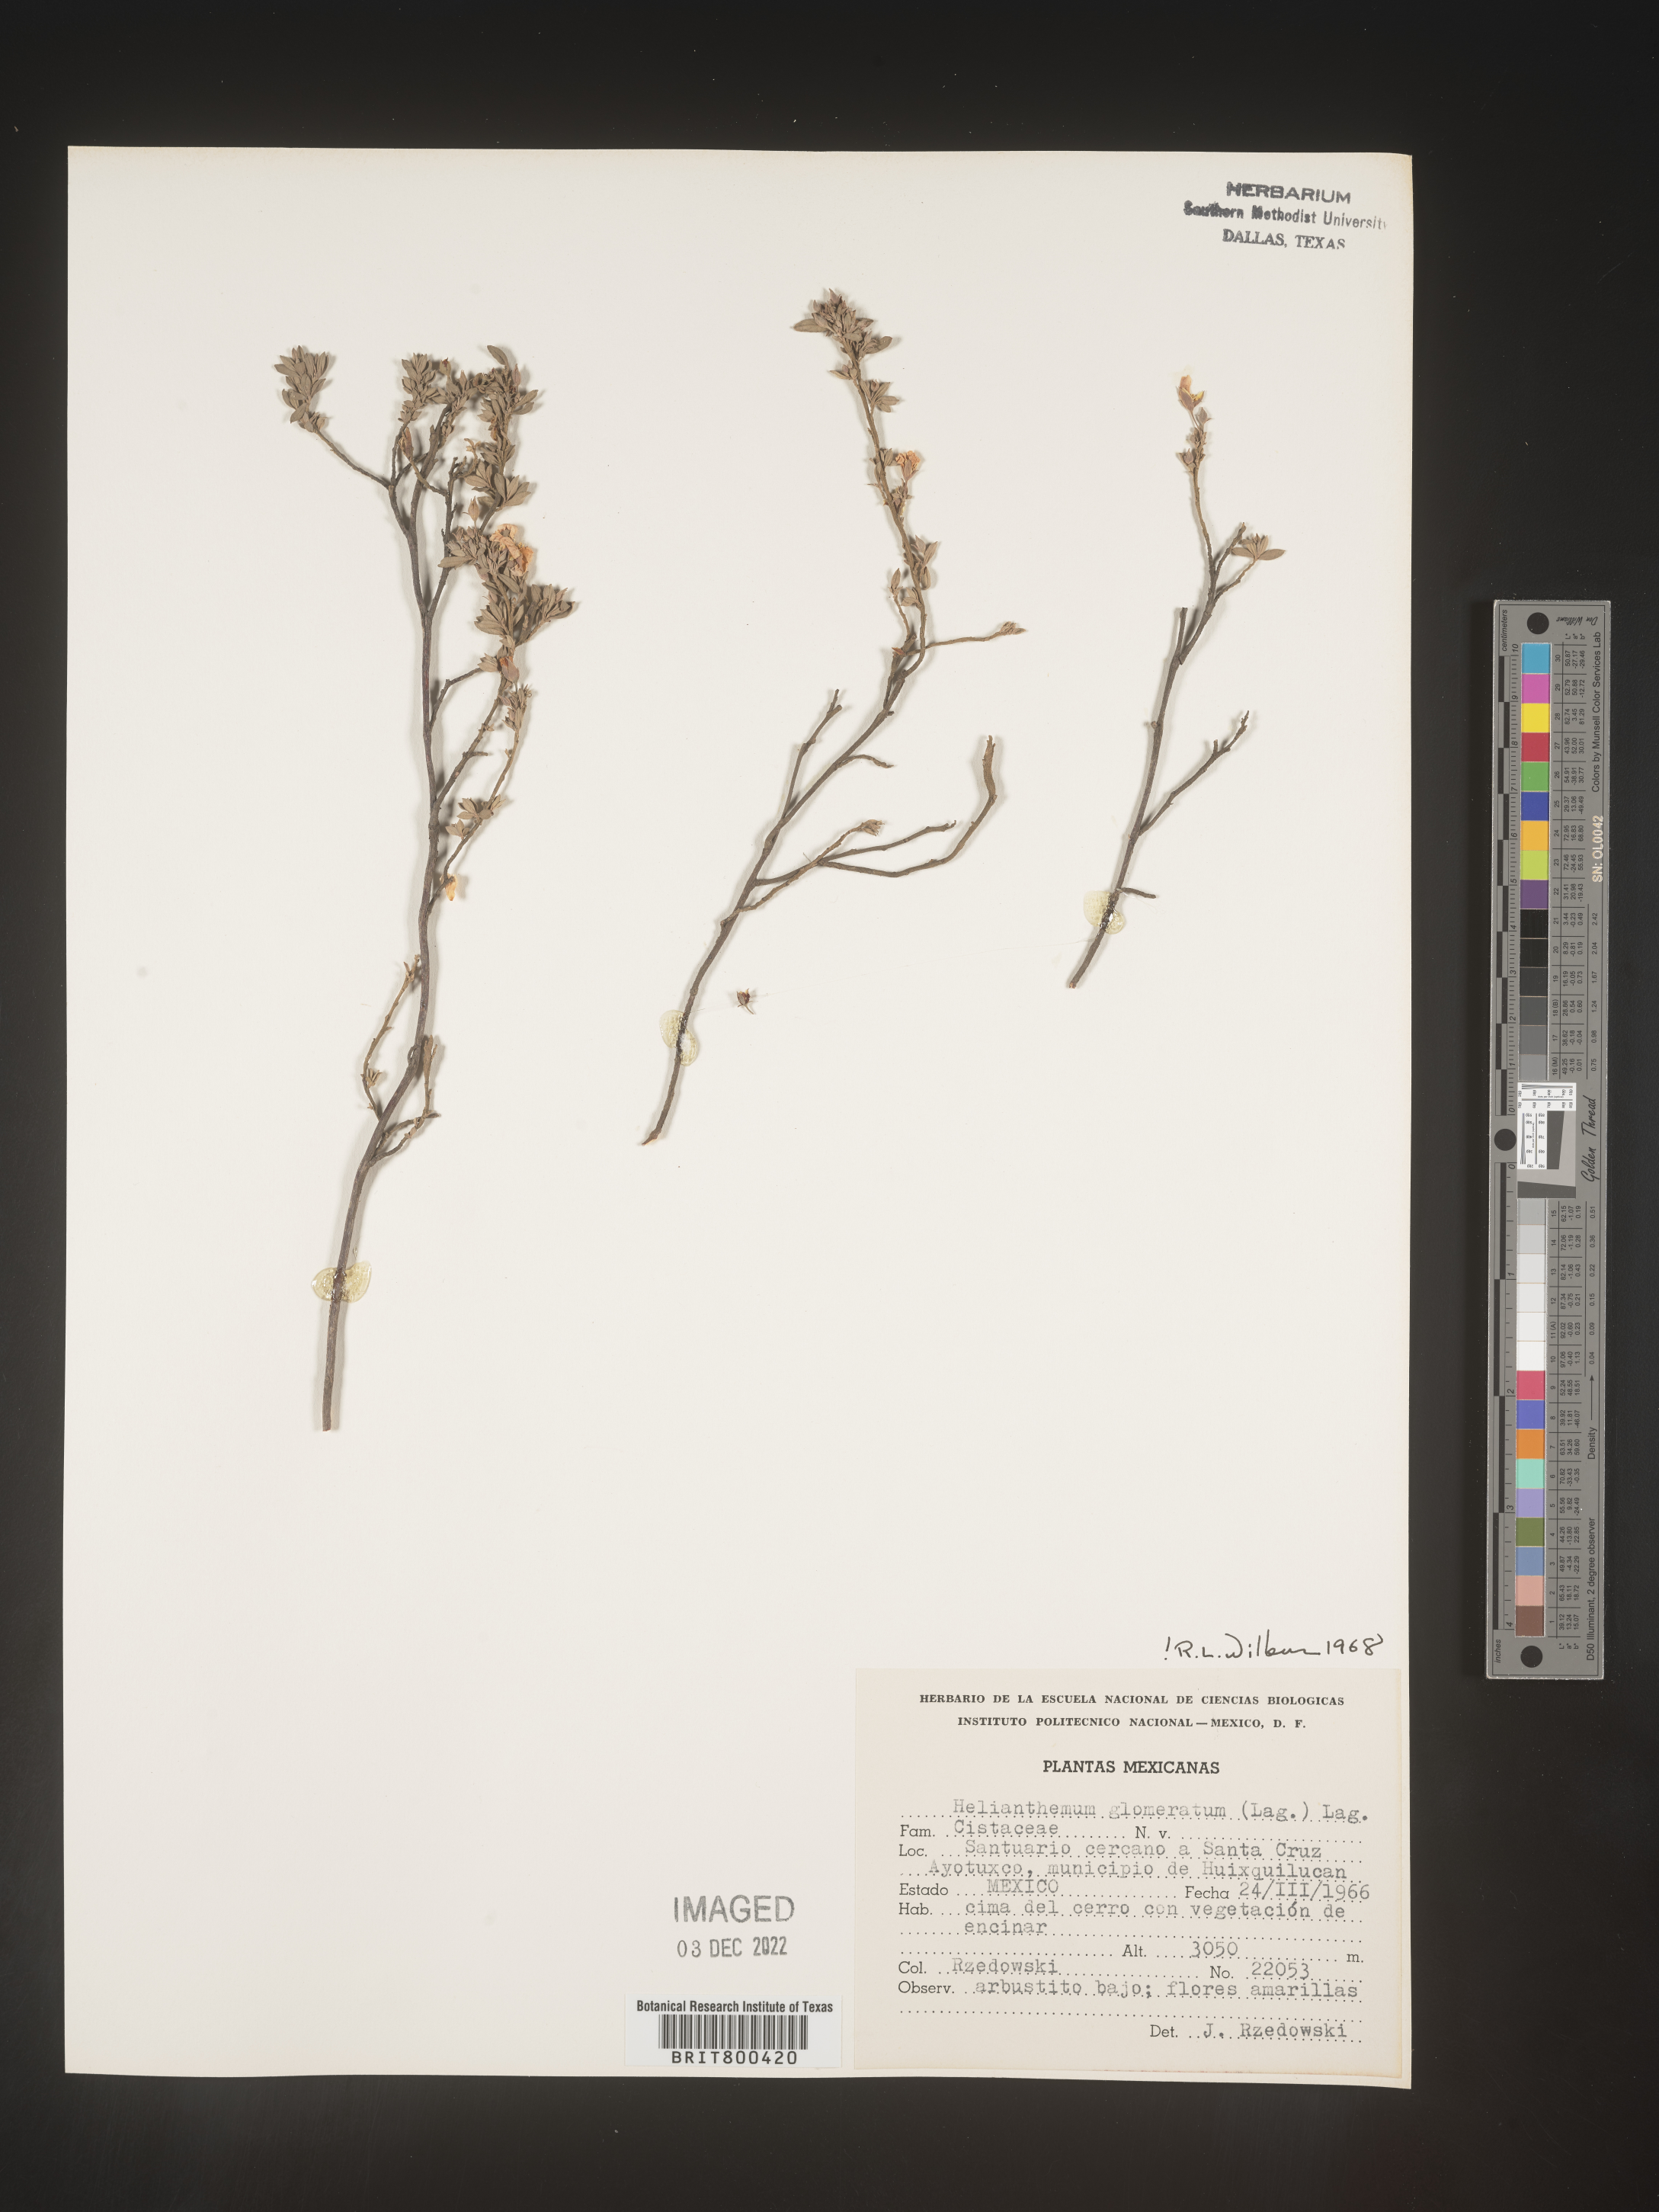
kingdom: Plantae
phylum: Tracheophyta
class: Magnoliopsida
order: Malvales
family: Cistaceae
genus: Helianthemum
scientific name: Helianthemum
